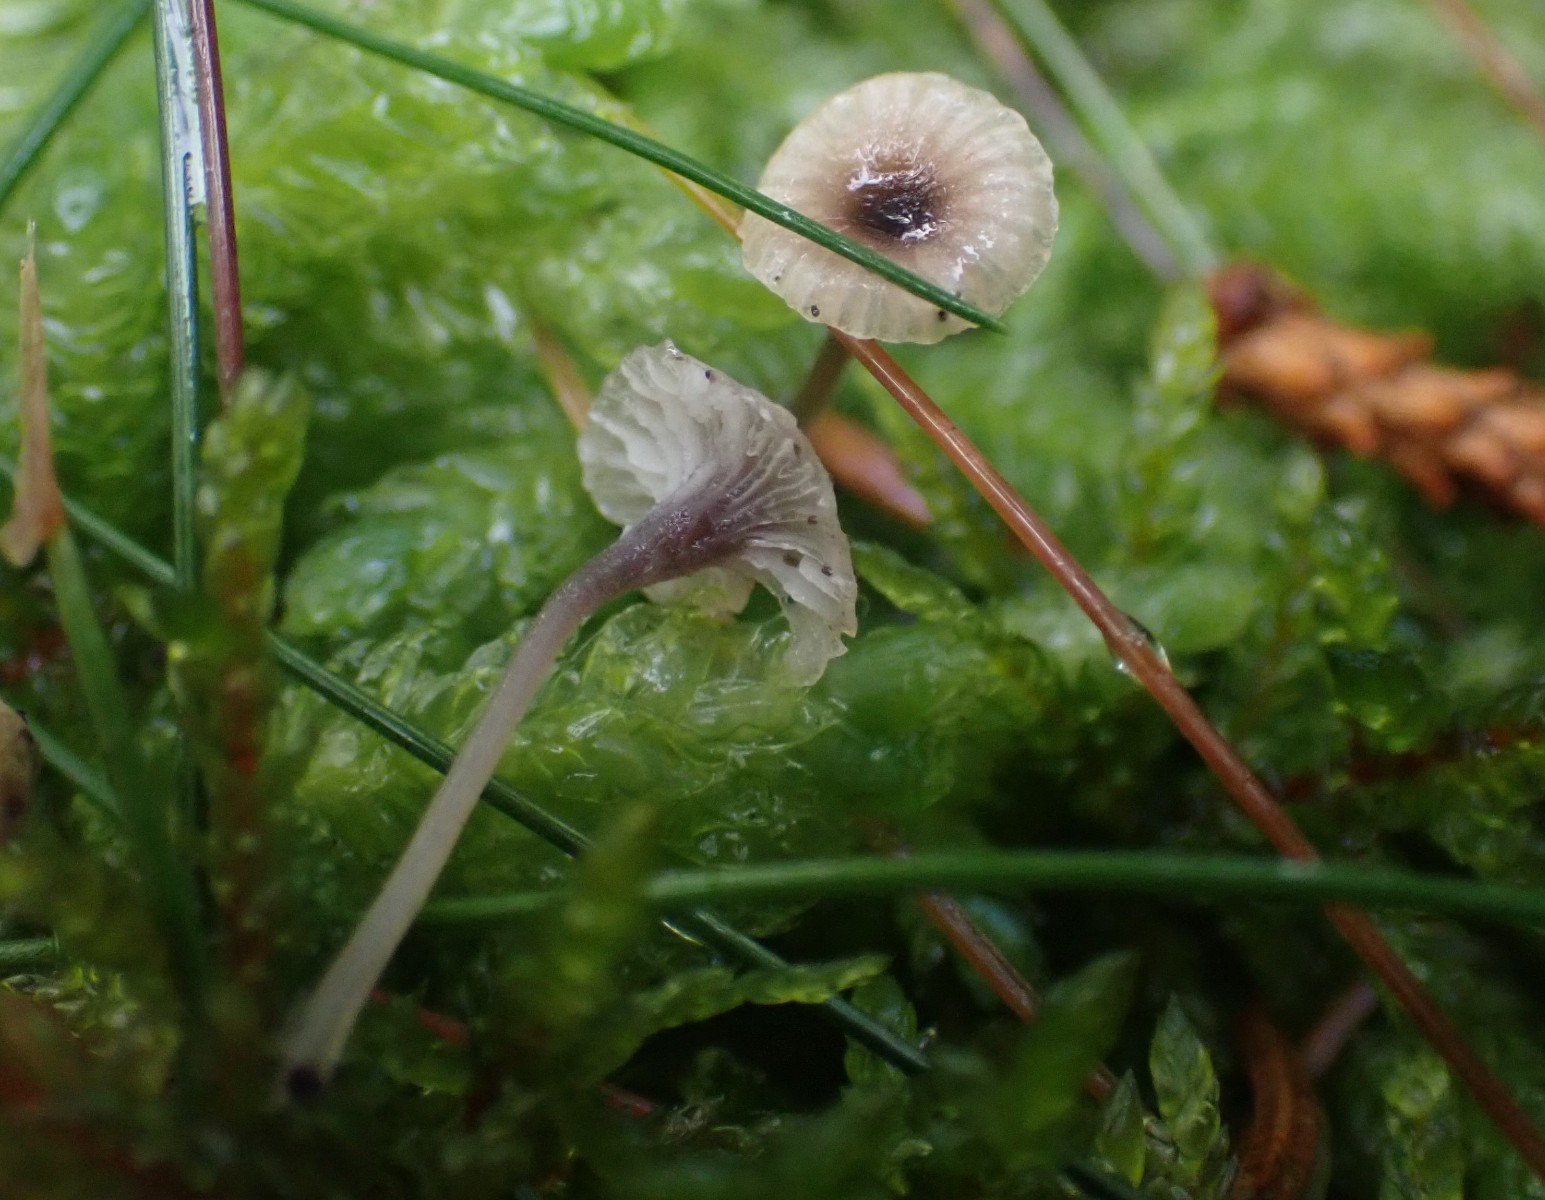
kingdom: Fungi
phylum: Basidiomycota
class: Agaricomycetes
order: Hymenochaetales
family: Rickenellaceae
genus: Rickenella
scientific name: Rickenella swartzii
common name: finstokket mosnavlehat
